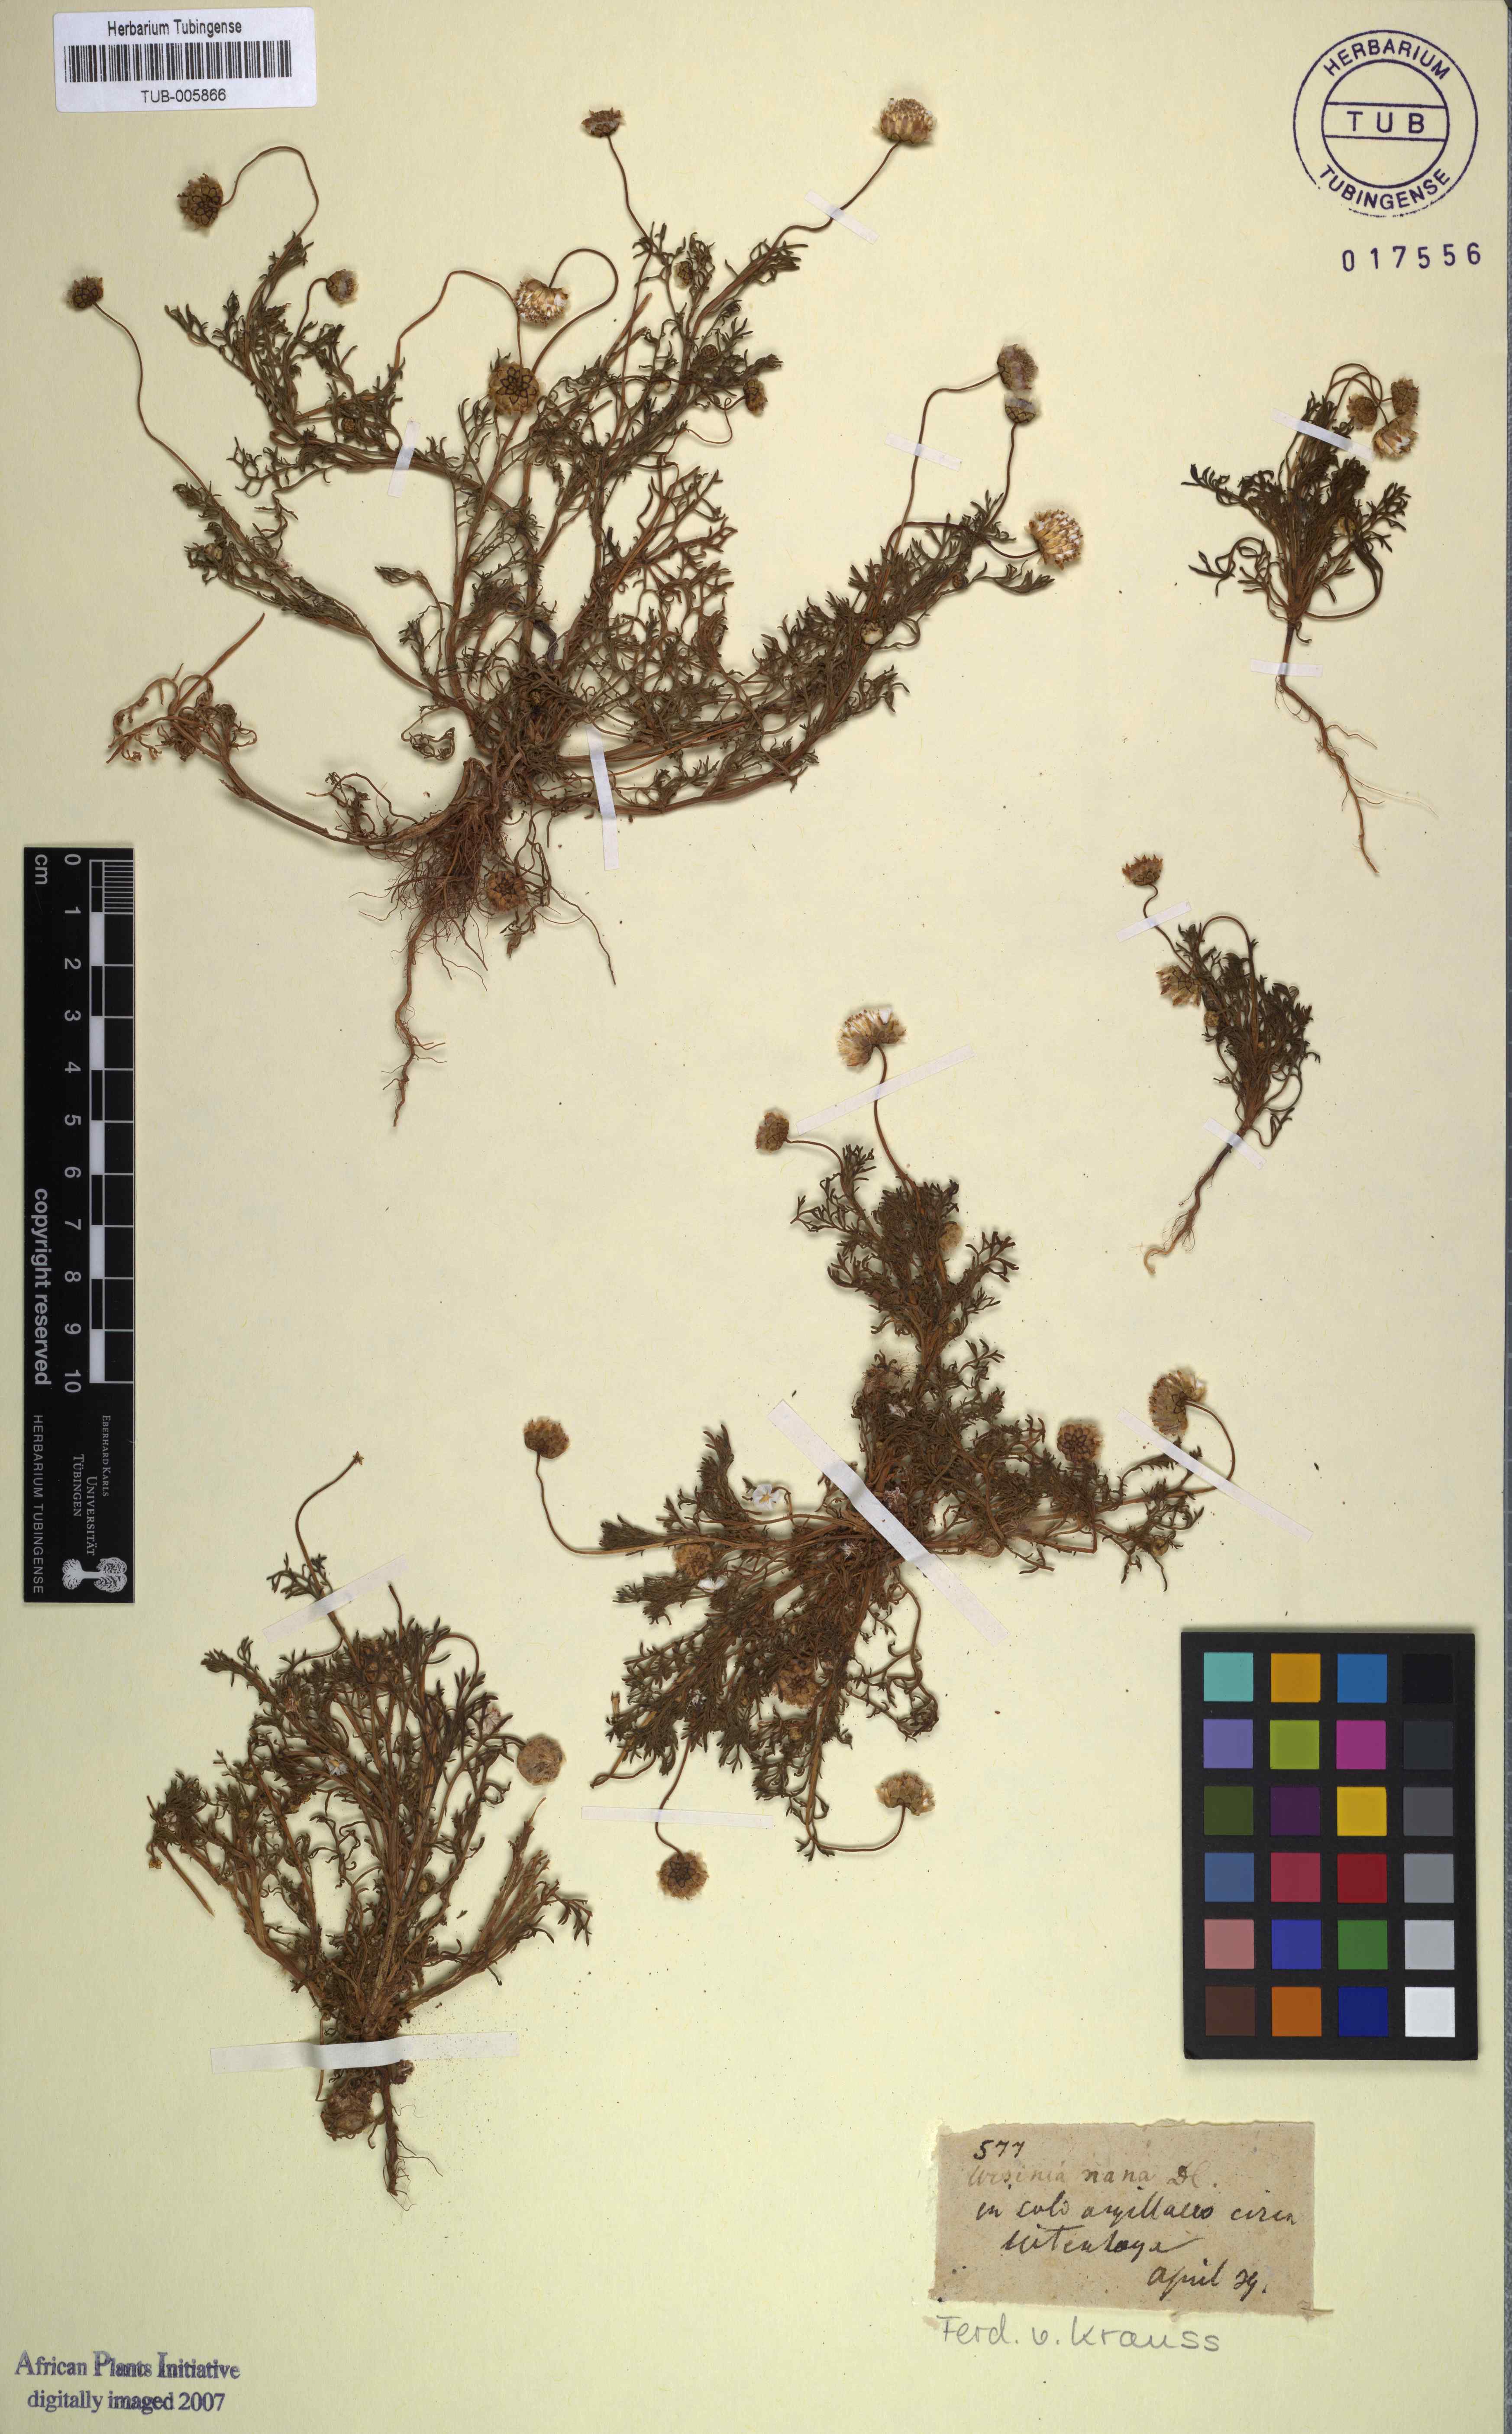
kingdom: Plantae
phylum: Tracheophyta
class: Magnoliopsida
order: Asterales
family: Asteraceae
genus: Ursinia
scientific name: Ursinia nana
